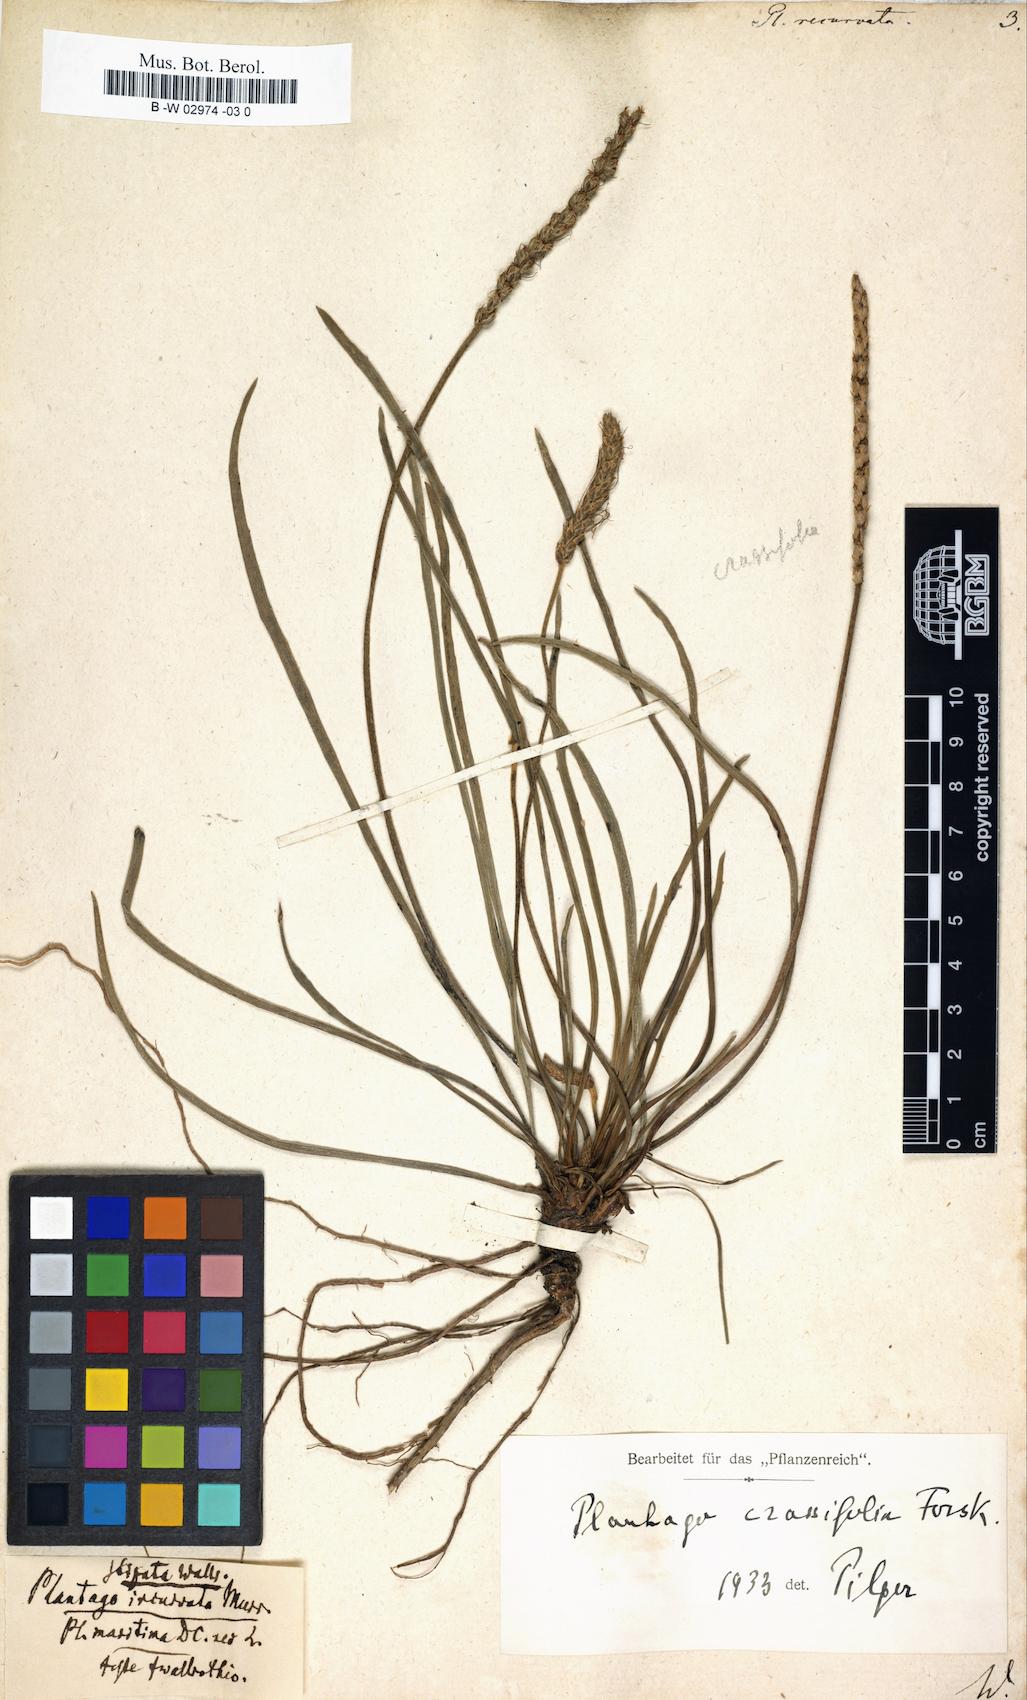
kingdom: Plantae
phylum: Tracheophyta
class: Magnoliopsida
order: Lamiales
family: Plantaginaceae
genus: Plantago
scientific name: Plantago
